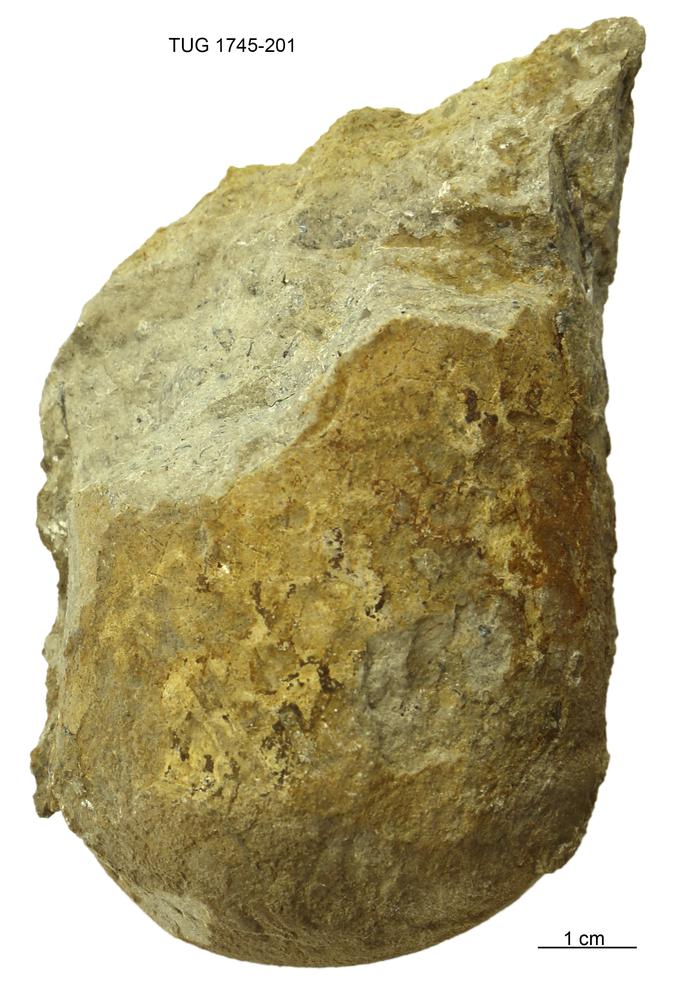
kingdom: Animalia
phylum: Mollusca
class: Cephalopoda
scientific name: Cephalopoda
